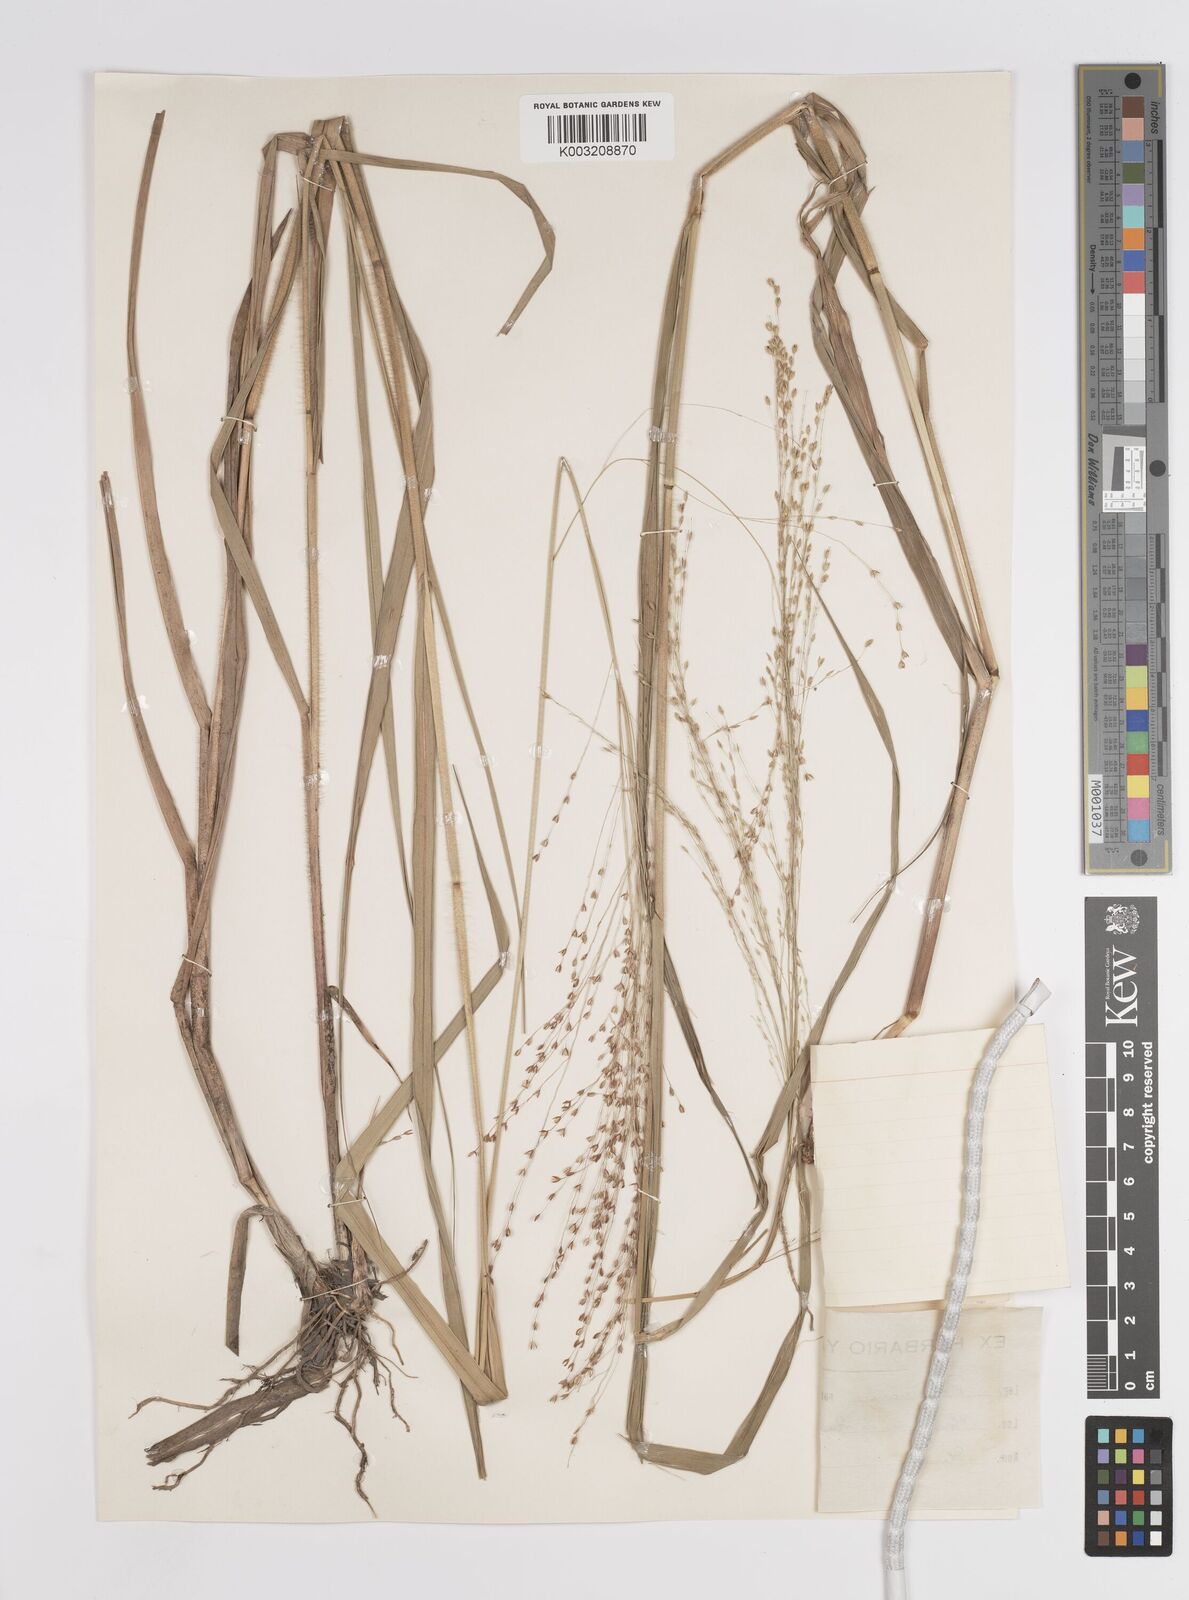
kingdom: Plantae
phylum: Tracheophyta
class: Liliopsida
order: Poales
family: Poaceae
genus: Panicum
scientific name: Panicum coloratum
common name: Kleingrass
